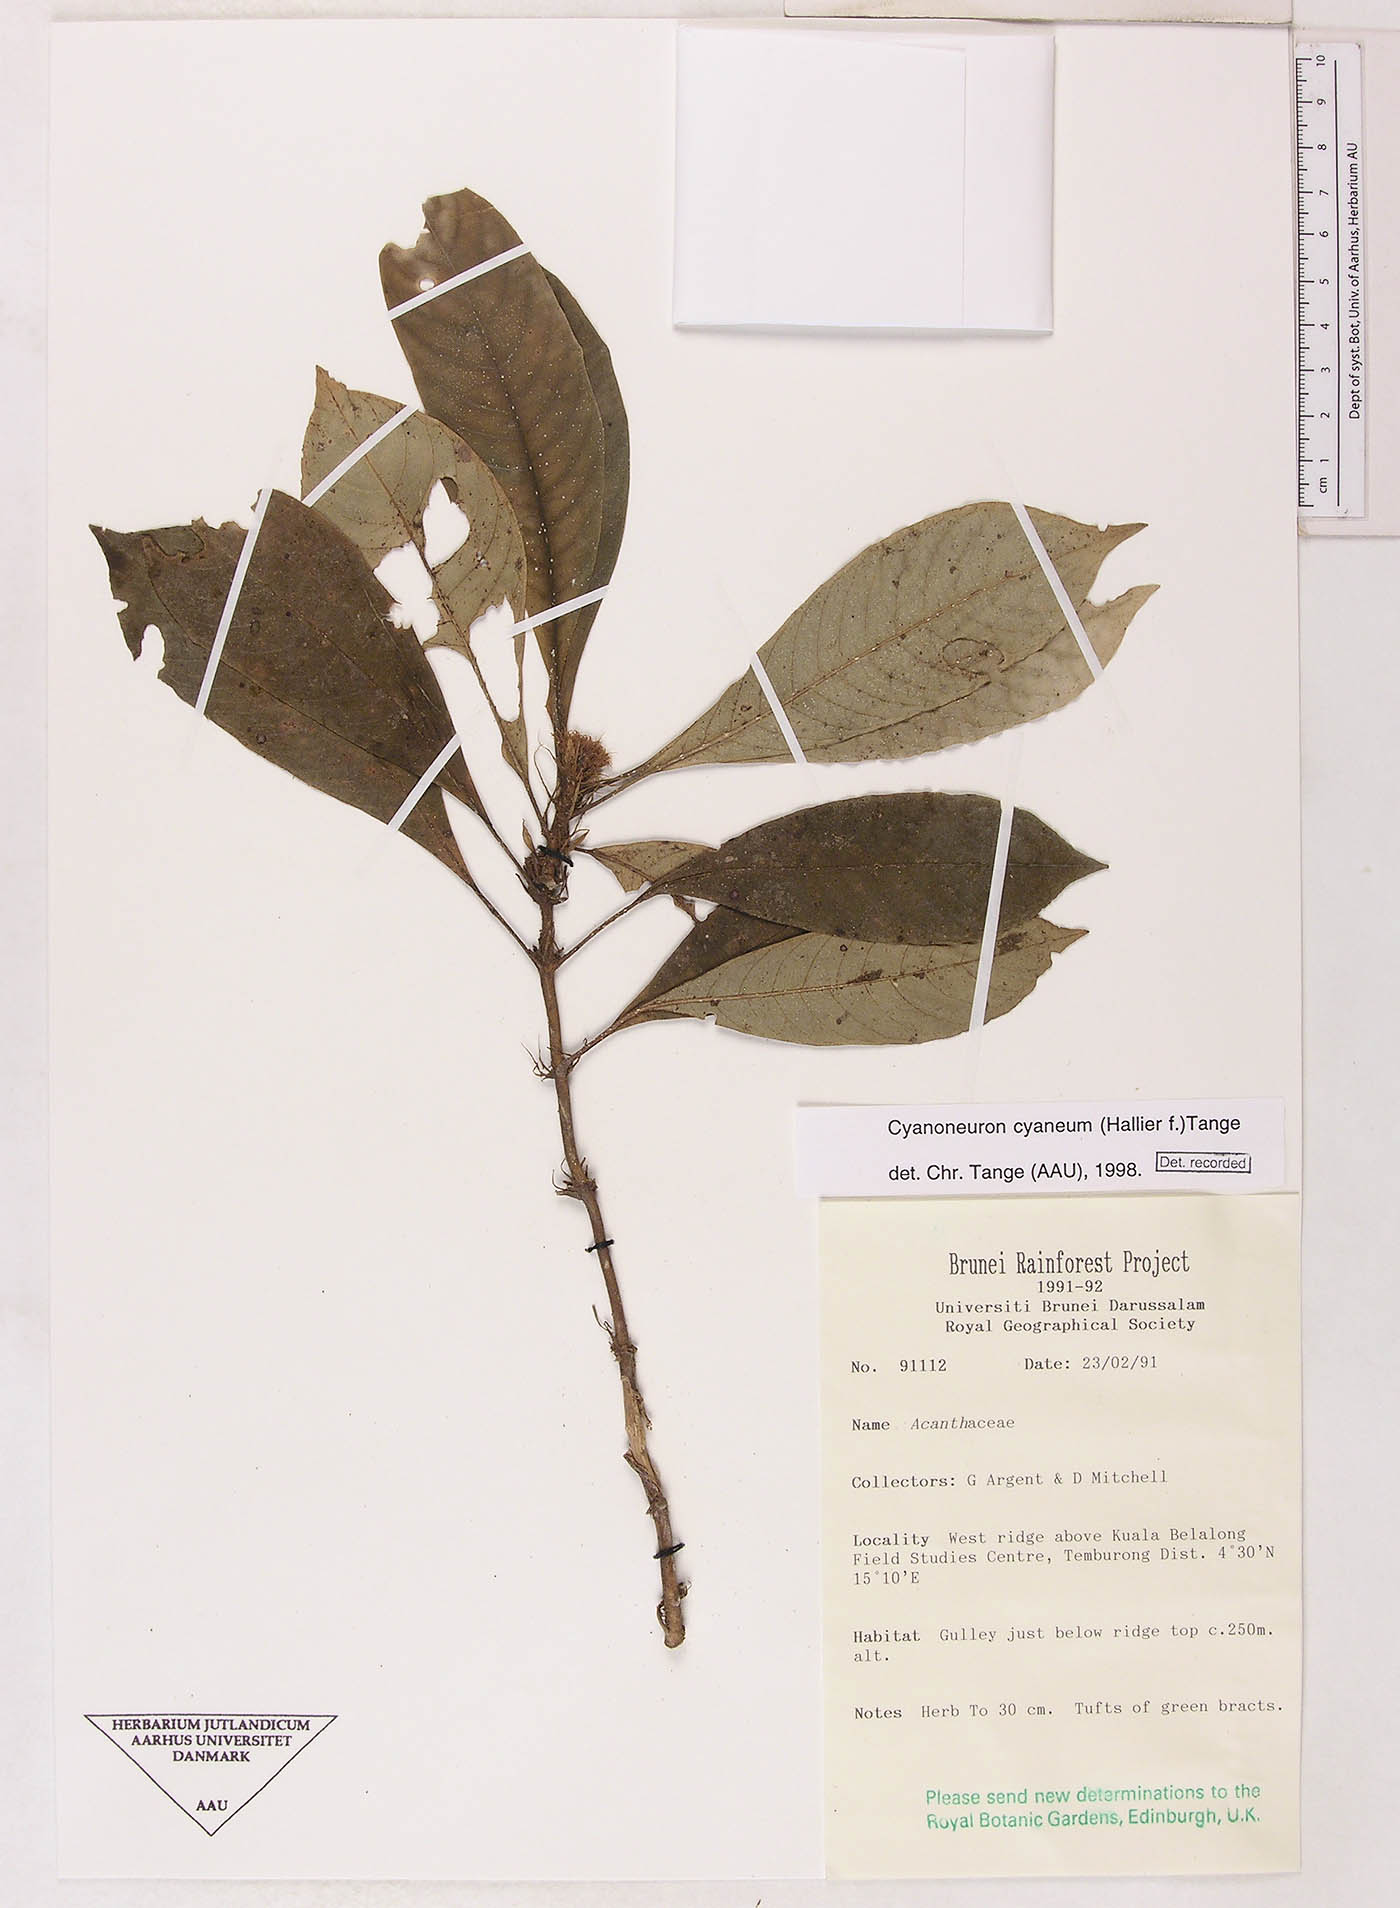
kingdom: Plantae
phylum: Tracheophyta
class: Magnoliopsida
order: Gentianales
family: Rubiaceae
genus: Cyanoneuron
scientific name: Cyanoneuron cyaneum
